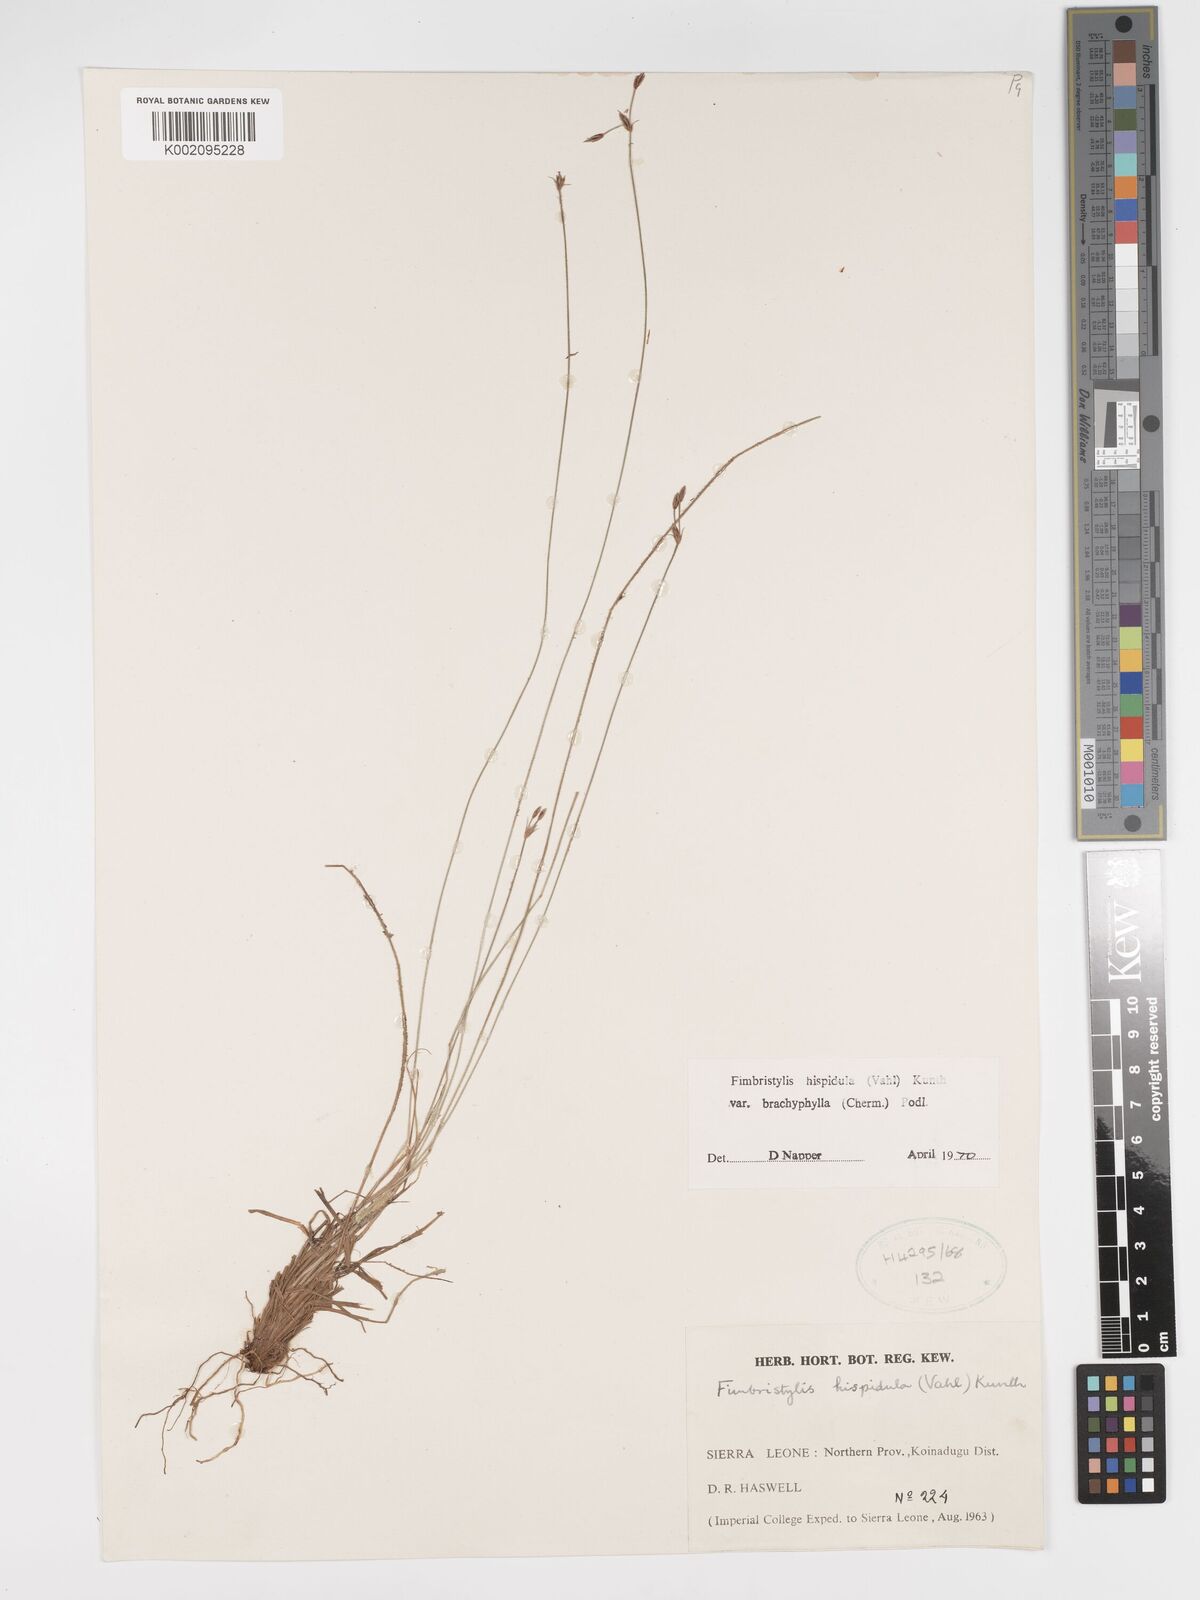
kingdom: Plantae
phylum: Tracheophyta
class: Liliopsida
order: Poales
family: Cyperaceae
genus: Bulbostylis
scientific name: Bulbostylis hispidula
